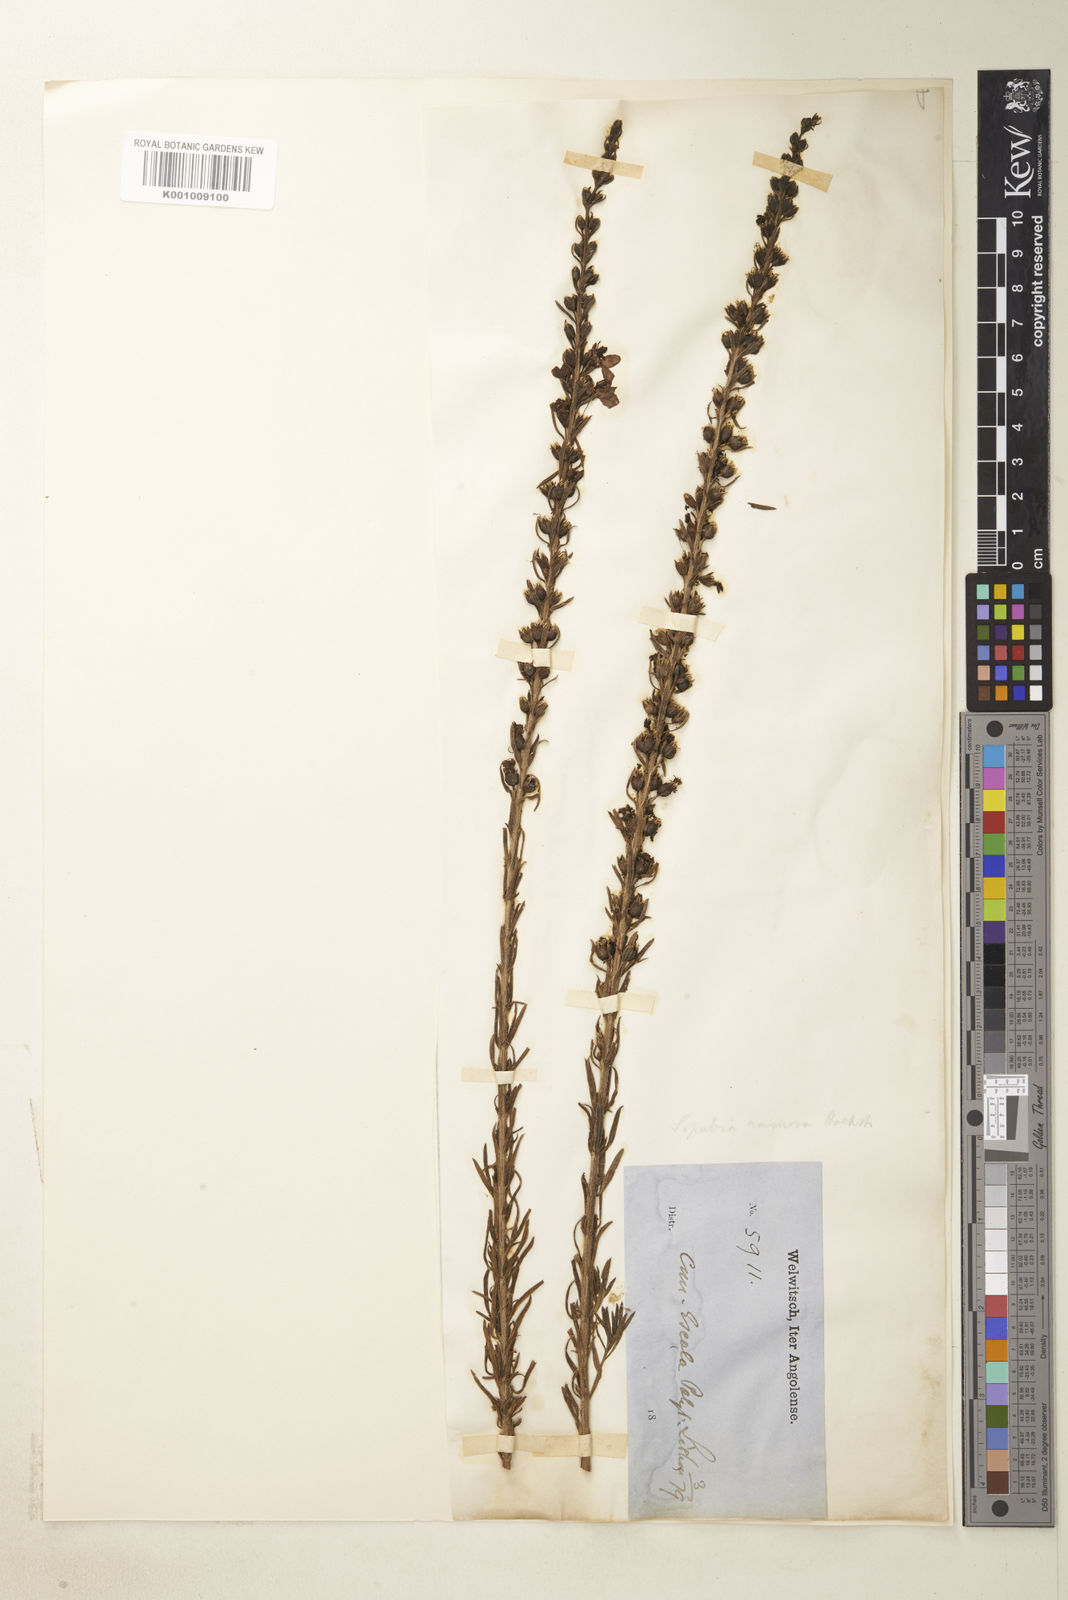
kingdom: Plantae
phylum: Tracheophyta
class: Magnoliopsida
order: Lamiales
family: Orobanchaceae
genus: Sopubia
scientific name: Sopubia ramosa
